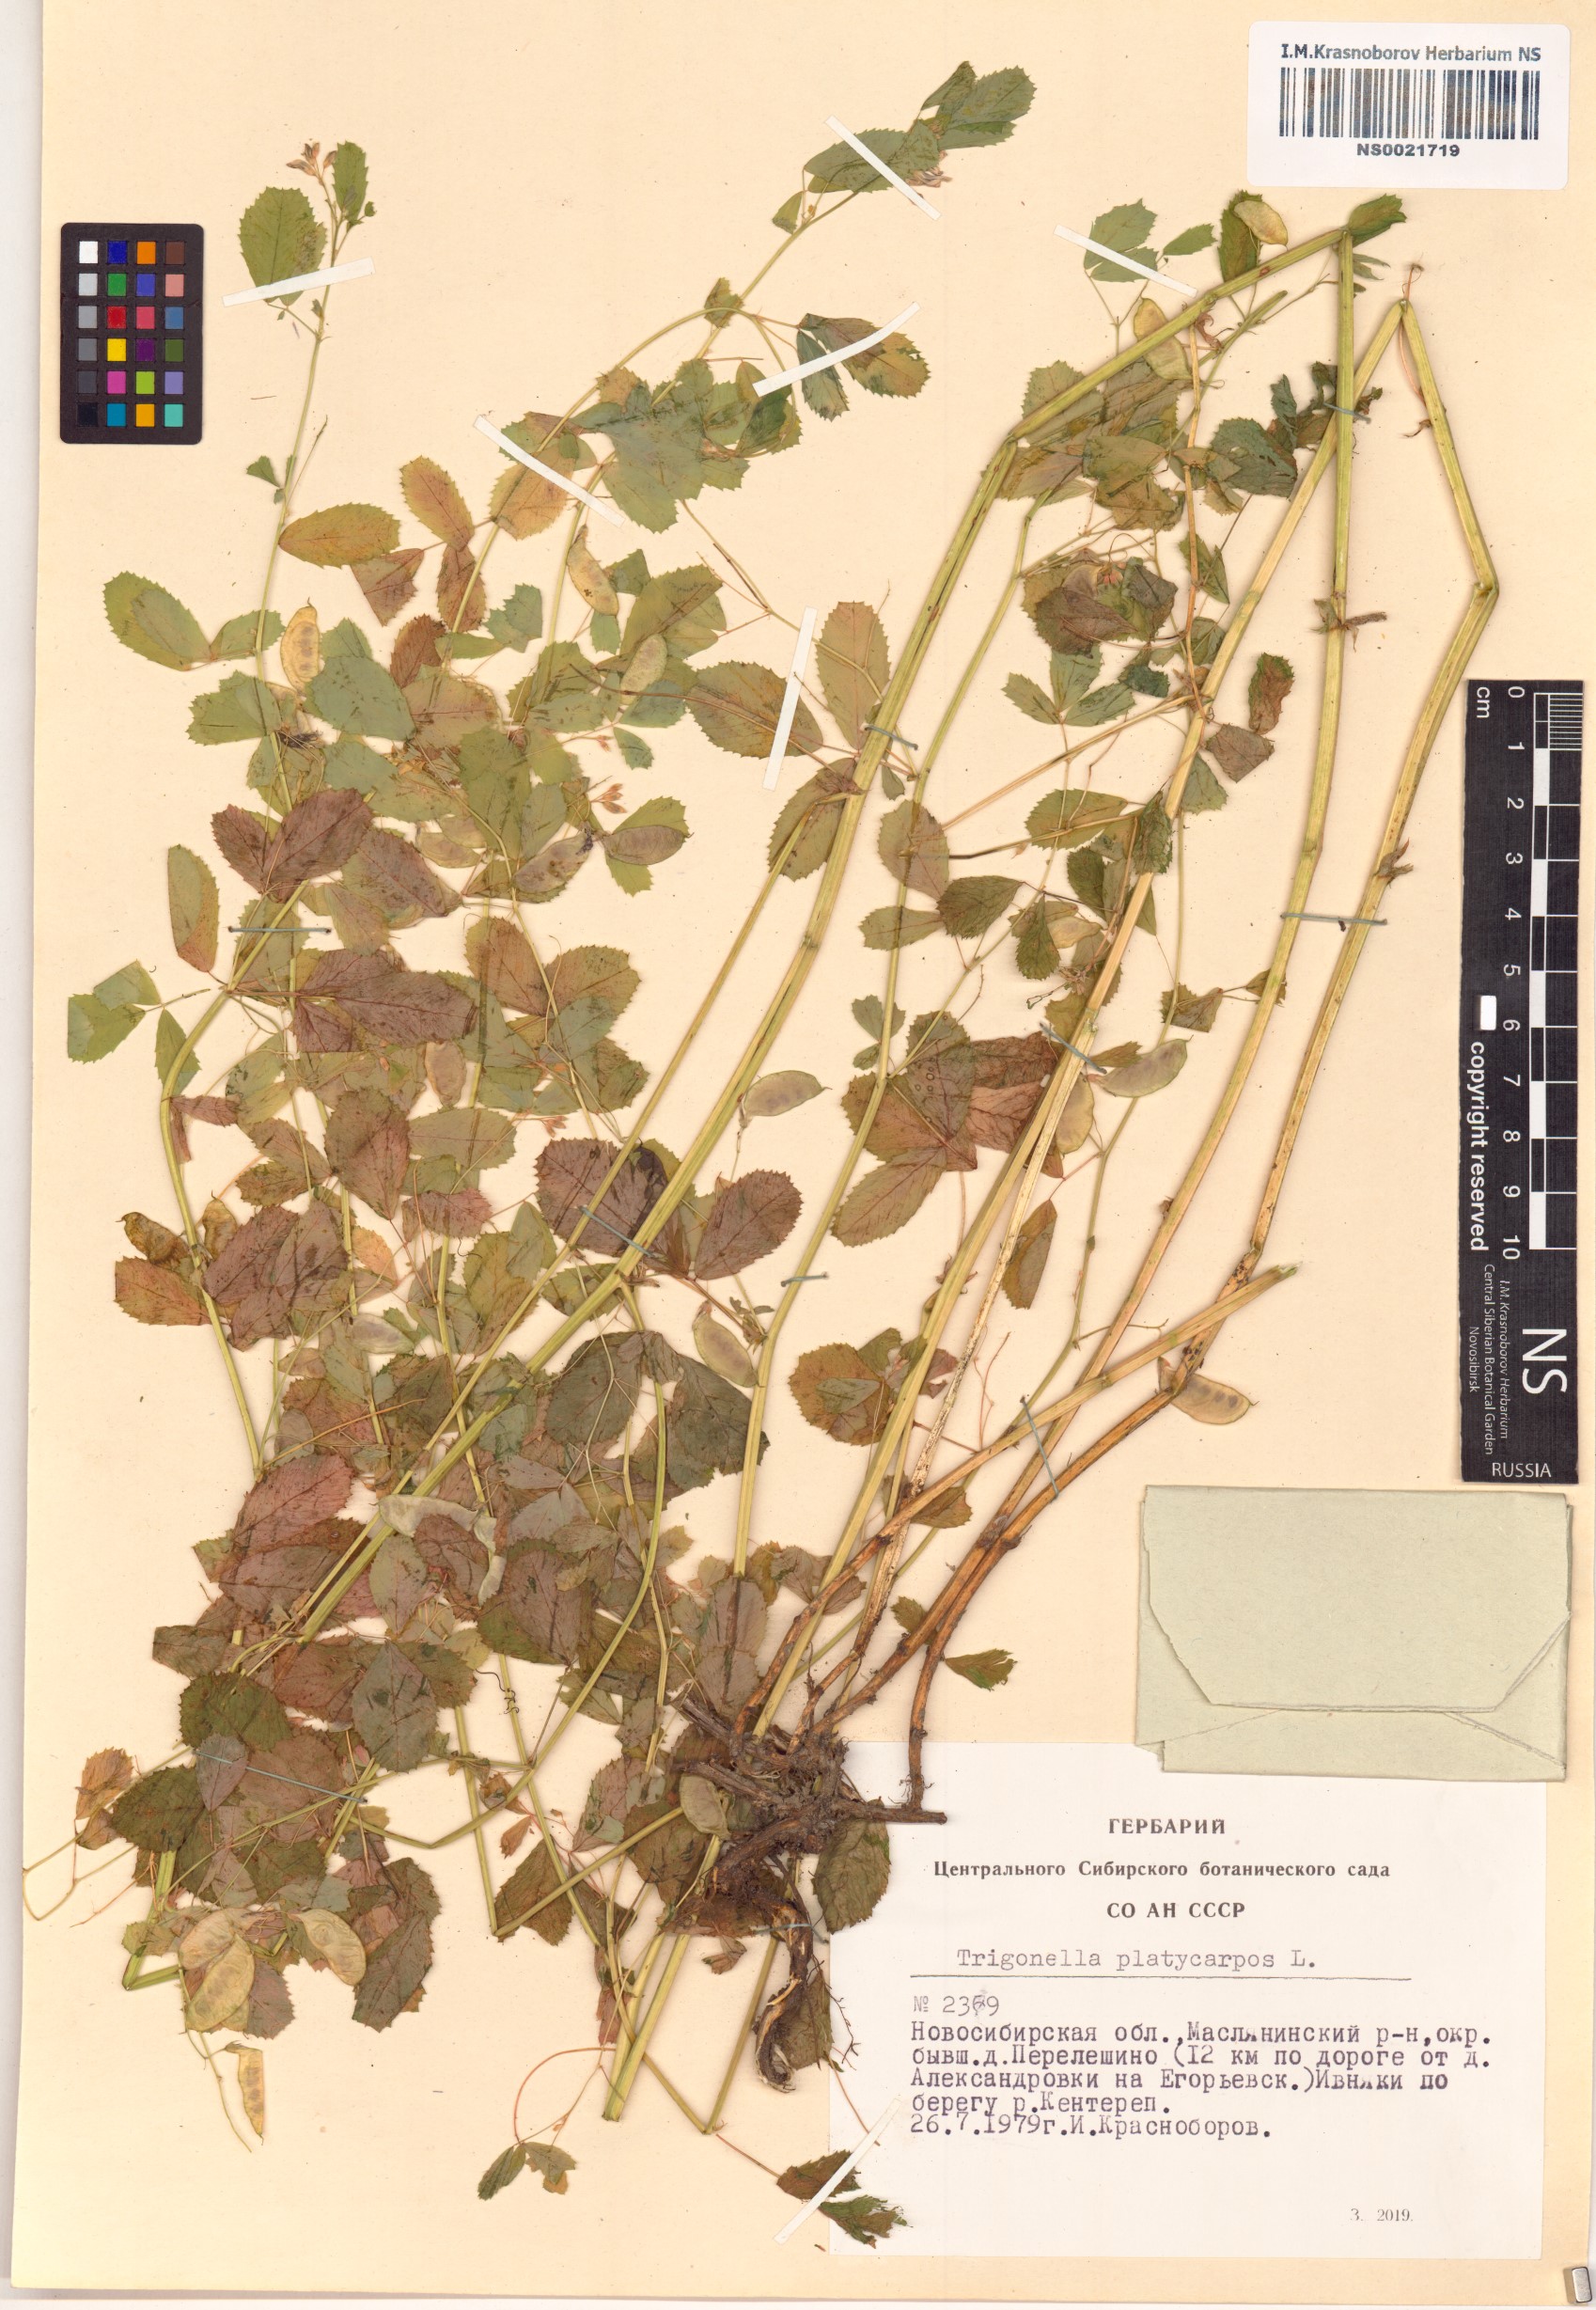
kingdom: Plantae
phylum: Tracheophyta
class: Magnoliopsida
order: Fabales
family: Fabaceae
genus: Medicago
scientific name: Medicago platycarpos
